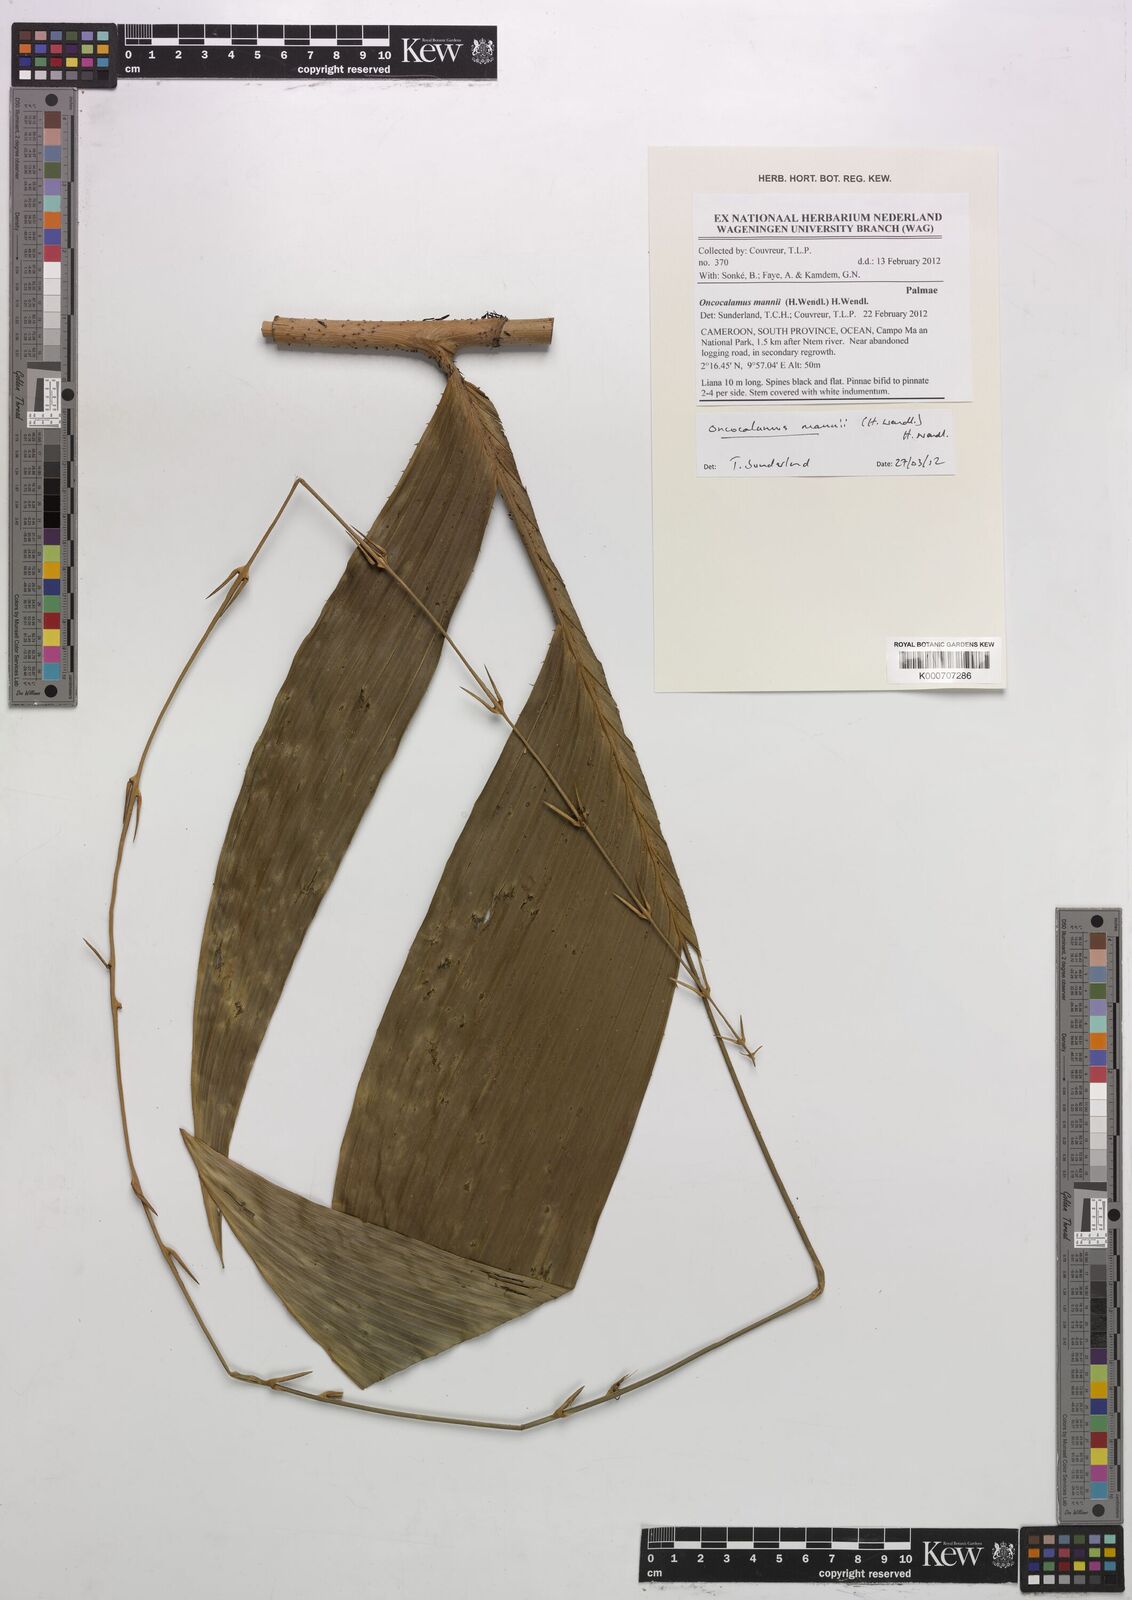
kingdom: Plantae
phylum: Tracheophyta
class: Liliopsida
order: Arecales
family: Arecaceae
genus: Oncocalamus
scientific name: Oncocalamus mannii
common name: Rattan
